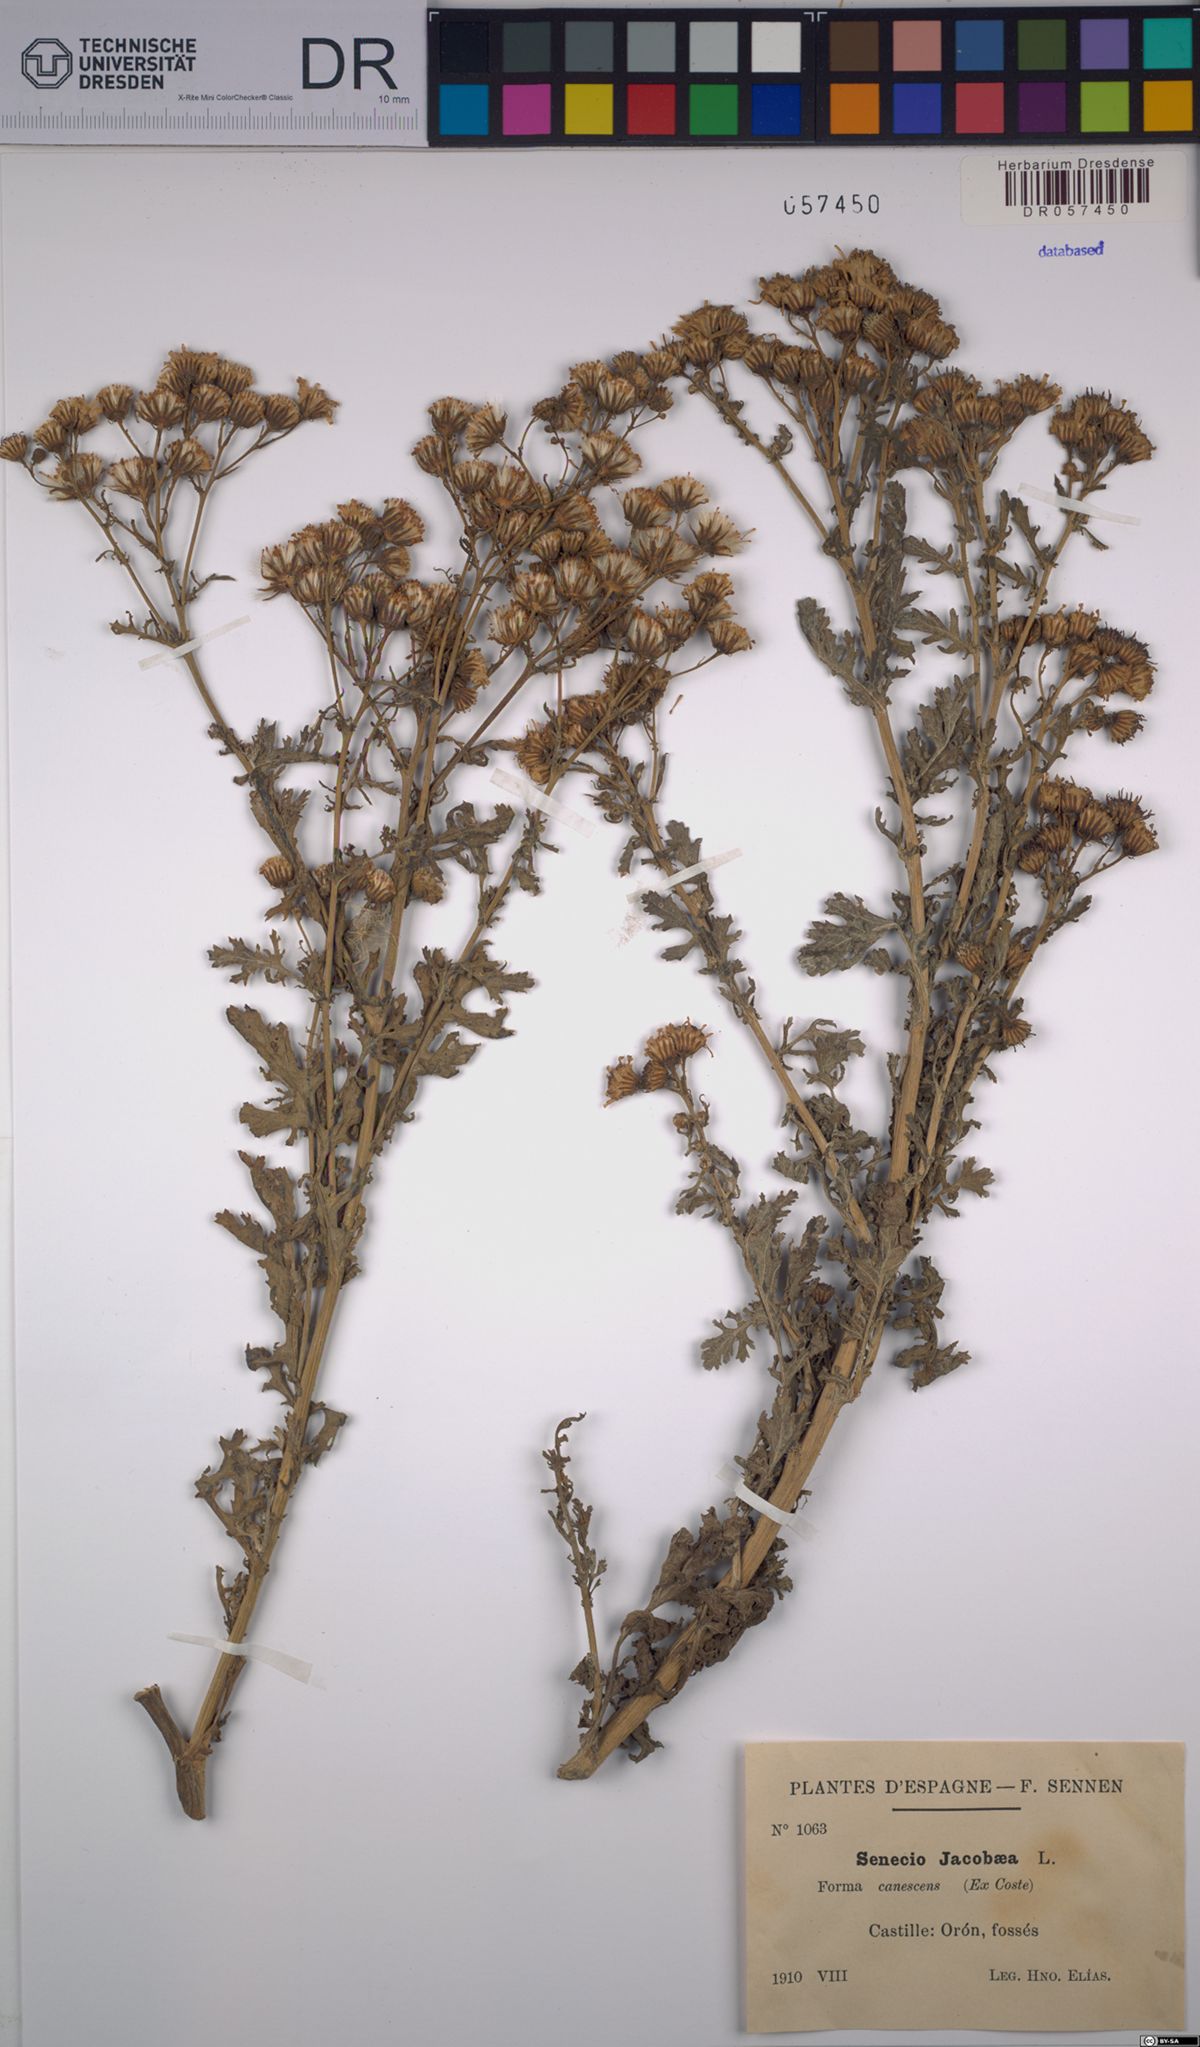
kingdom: Plantae
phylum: Tracheophyta
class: Magnoliopsida
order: Asterales
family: Asteraceae
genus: Jacobaea
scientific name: Jacobaea vulgaris
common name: Stinking willie
